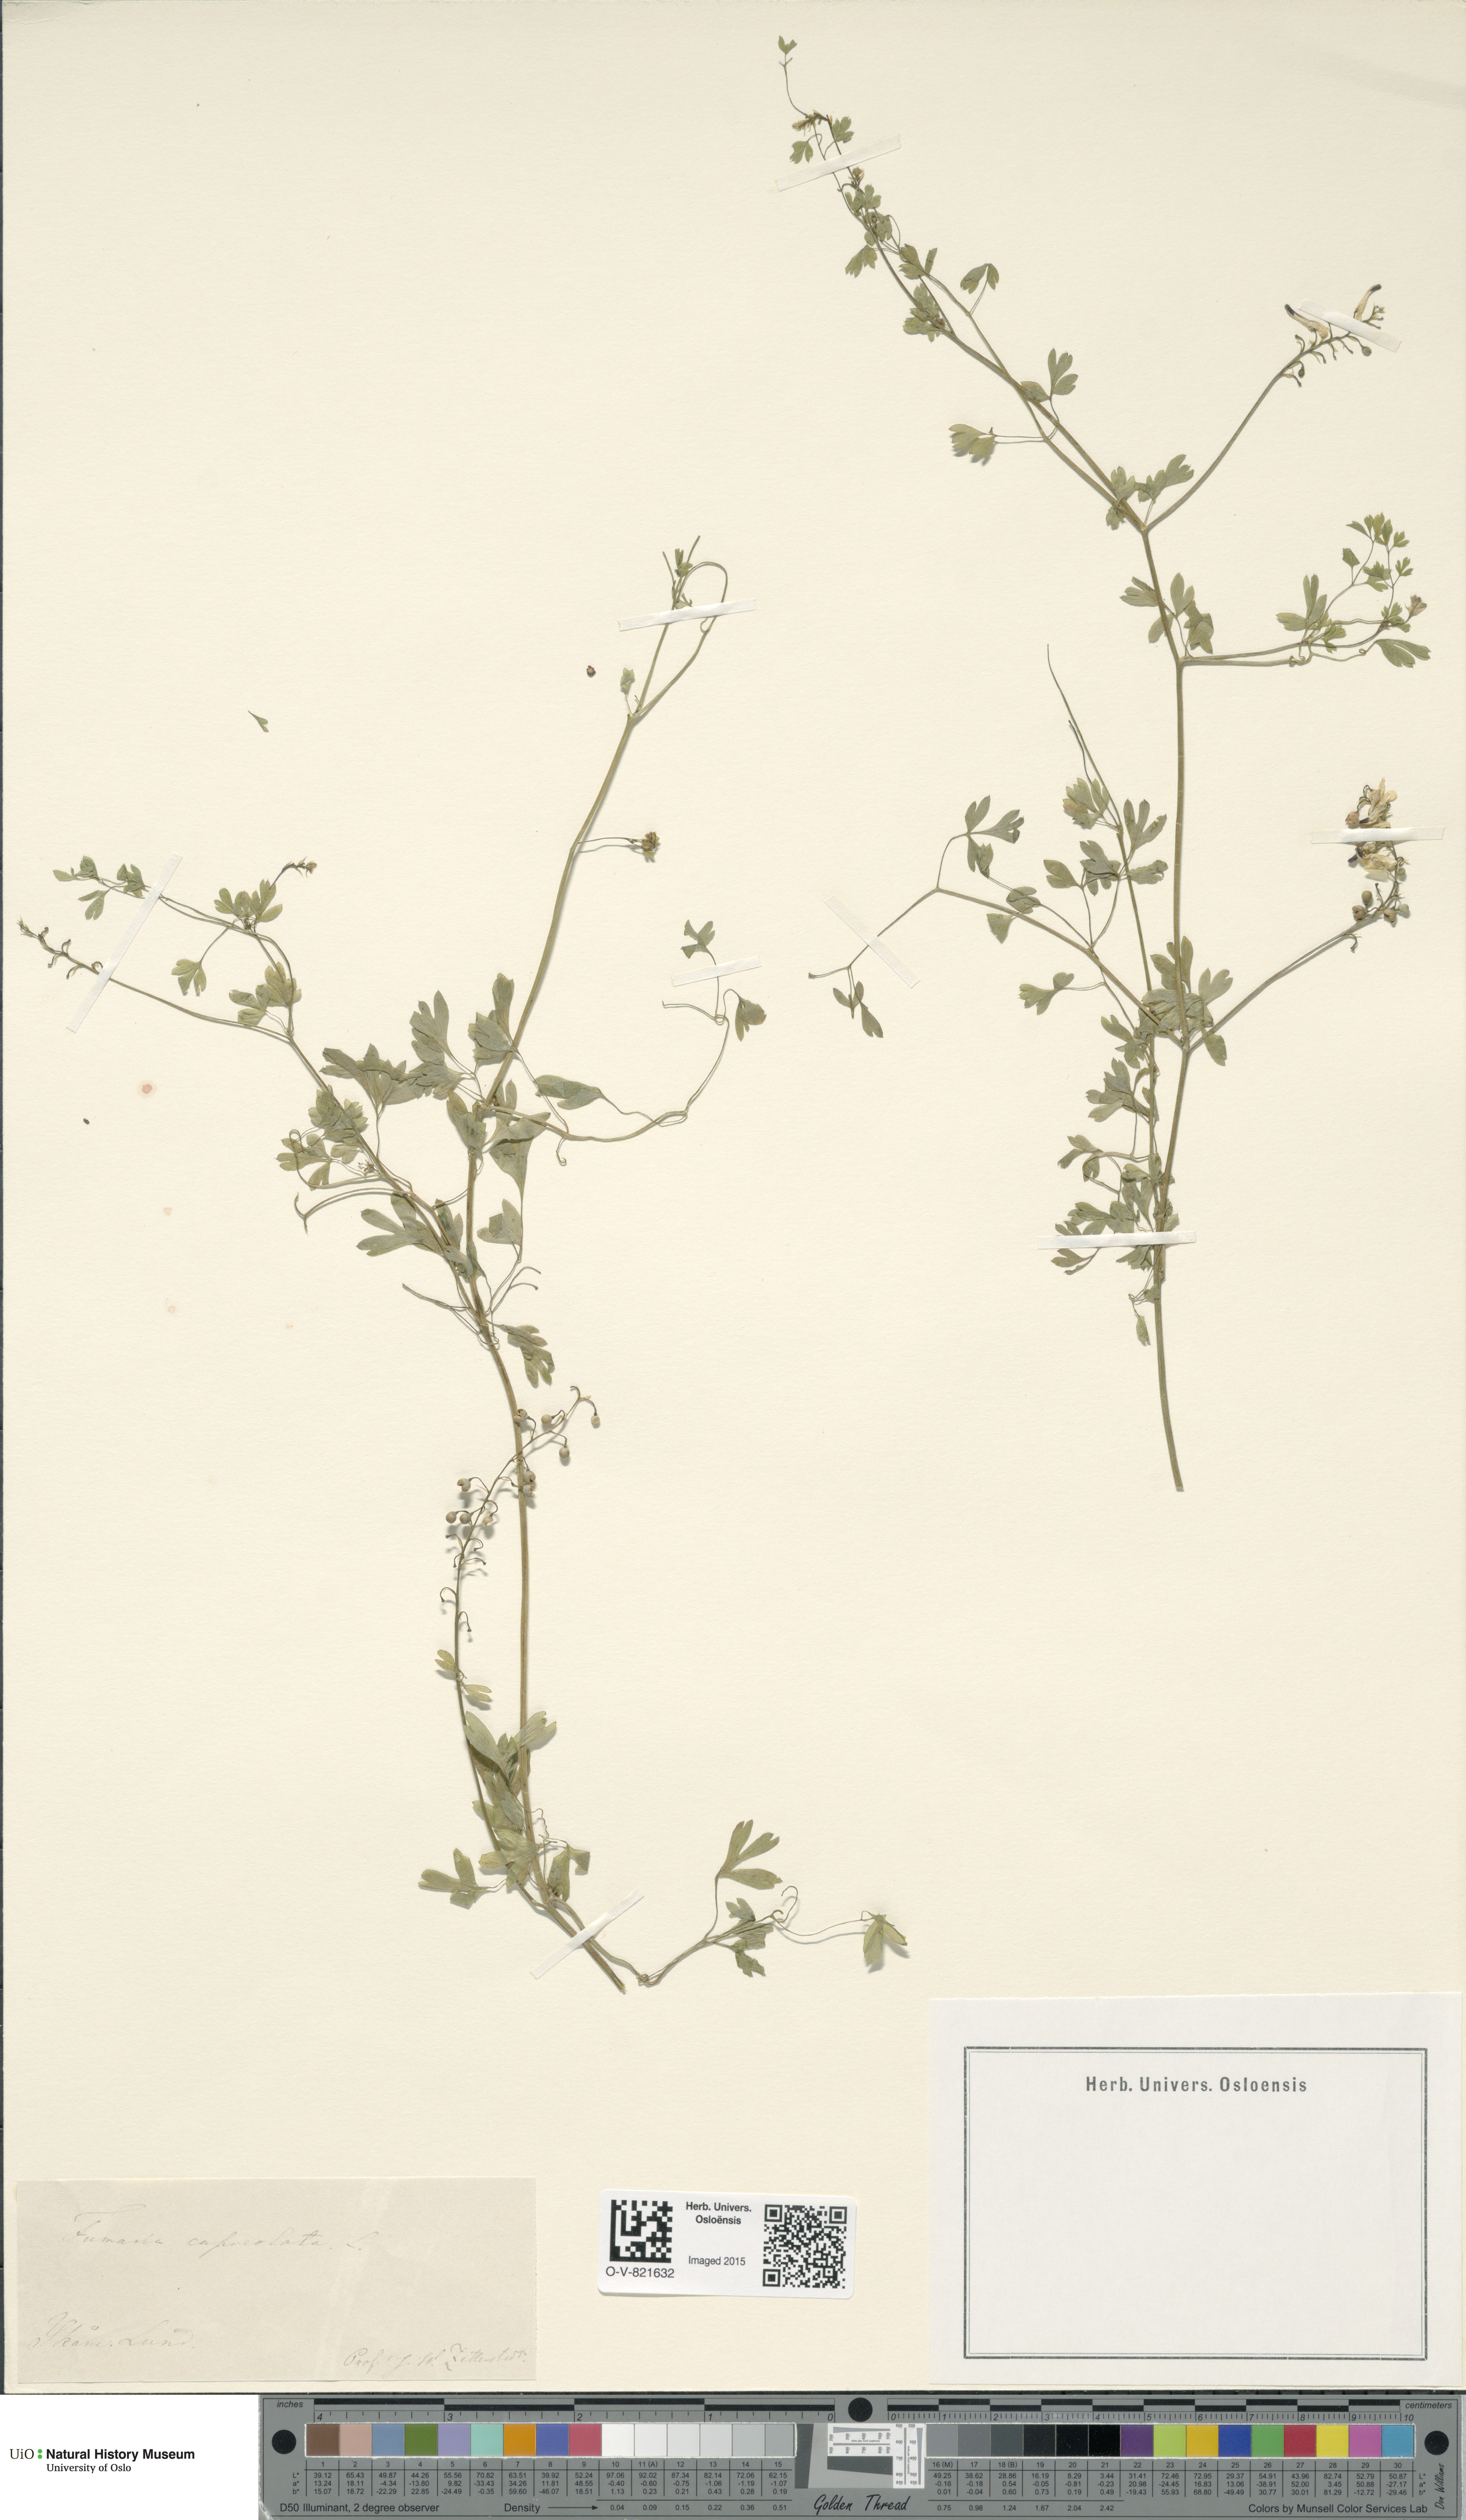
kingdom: Plantae
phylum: Tracheophyta
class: Magnoliopsida
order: Ranunculales
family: Papaveraceae
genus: Fumaria
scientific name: Fumaria capreolata
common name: White ramping-fumitory
